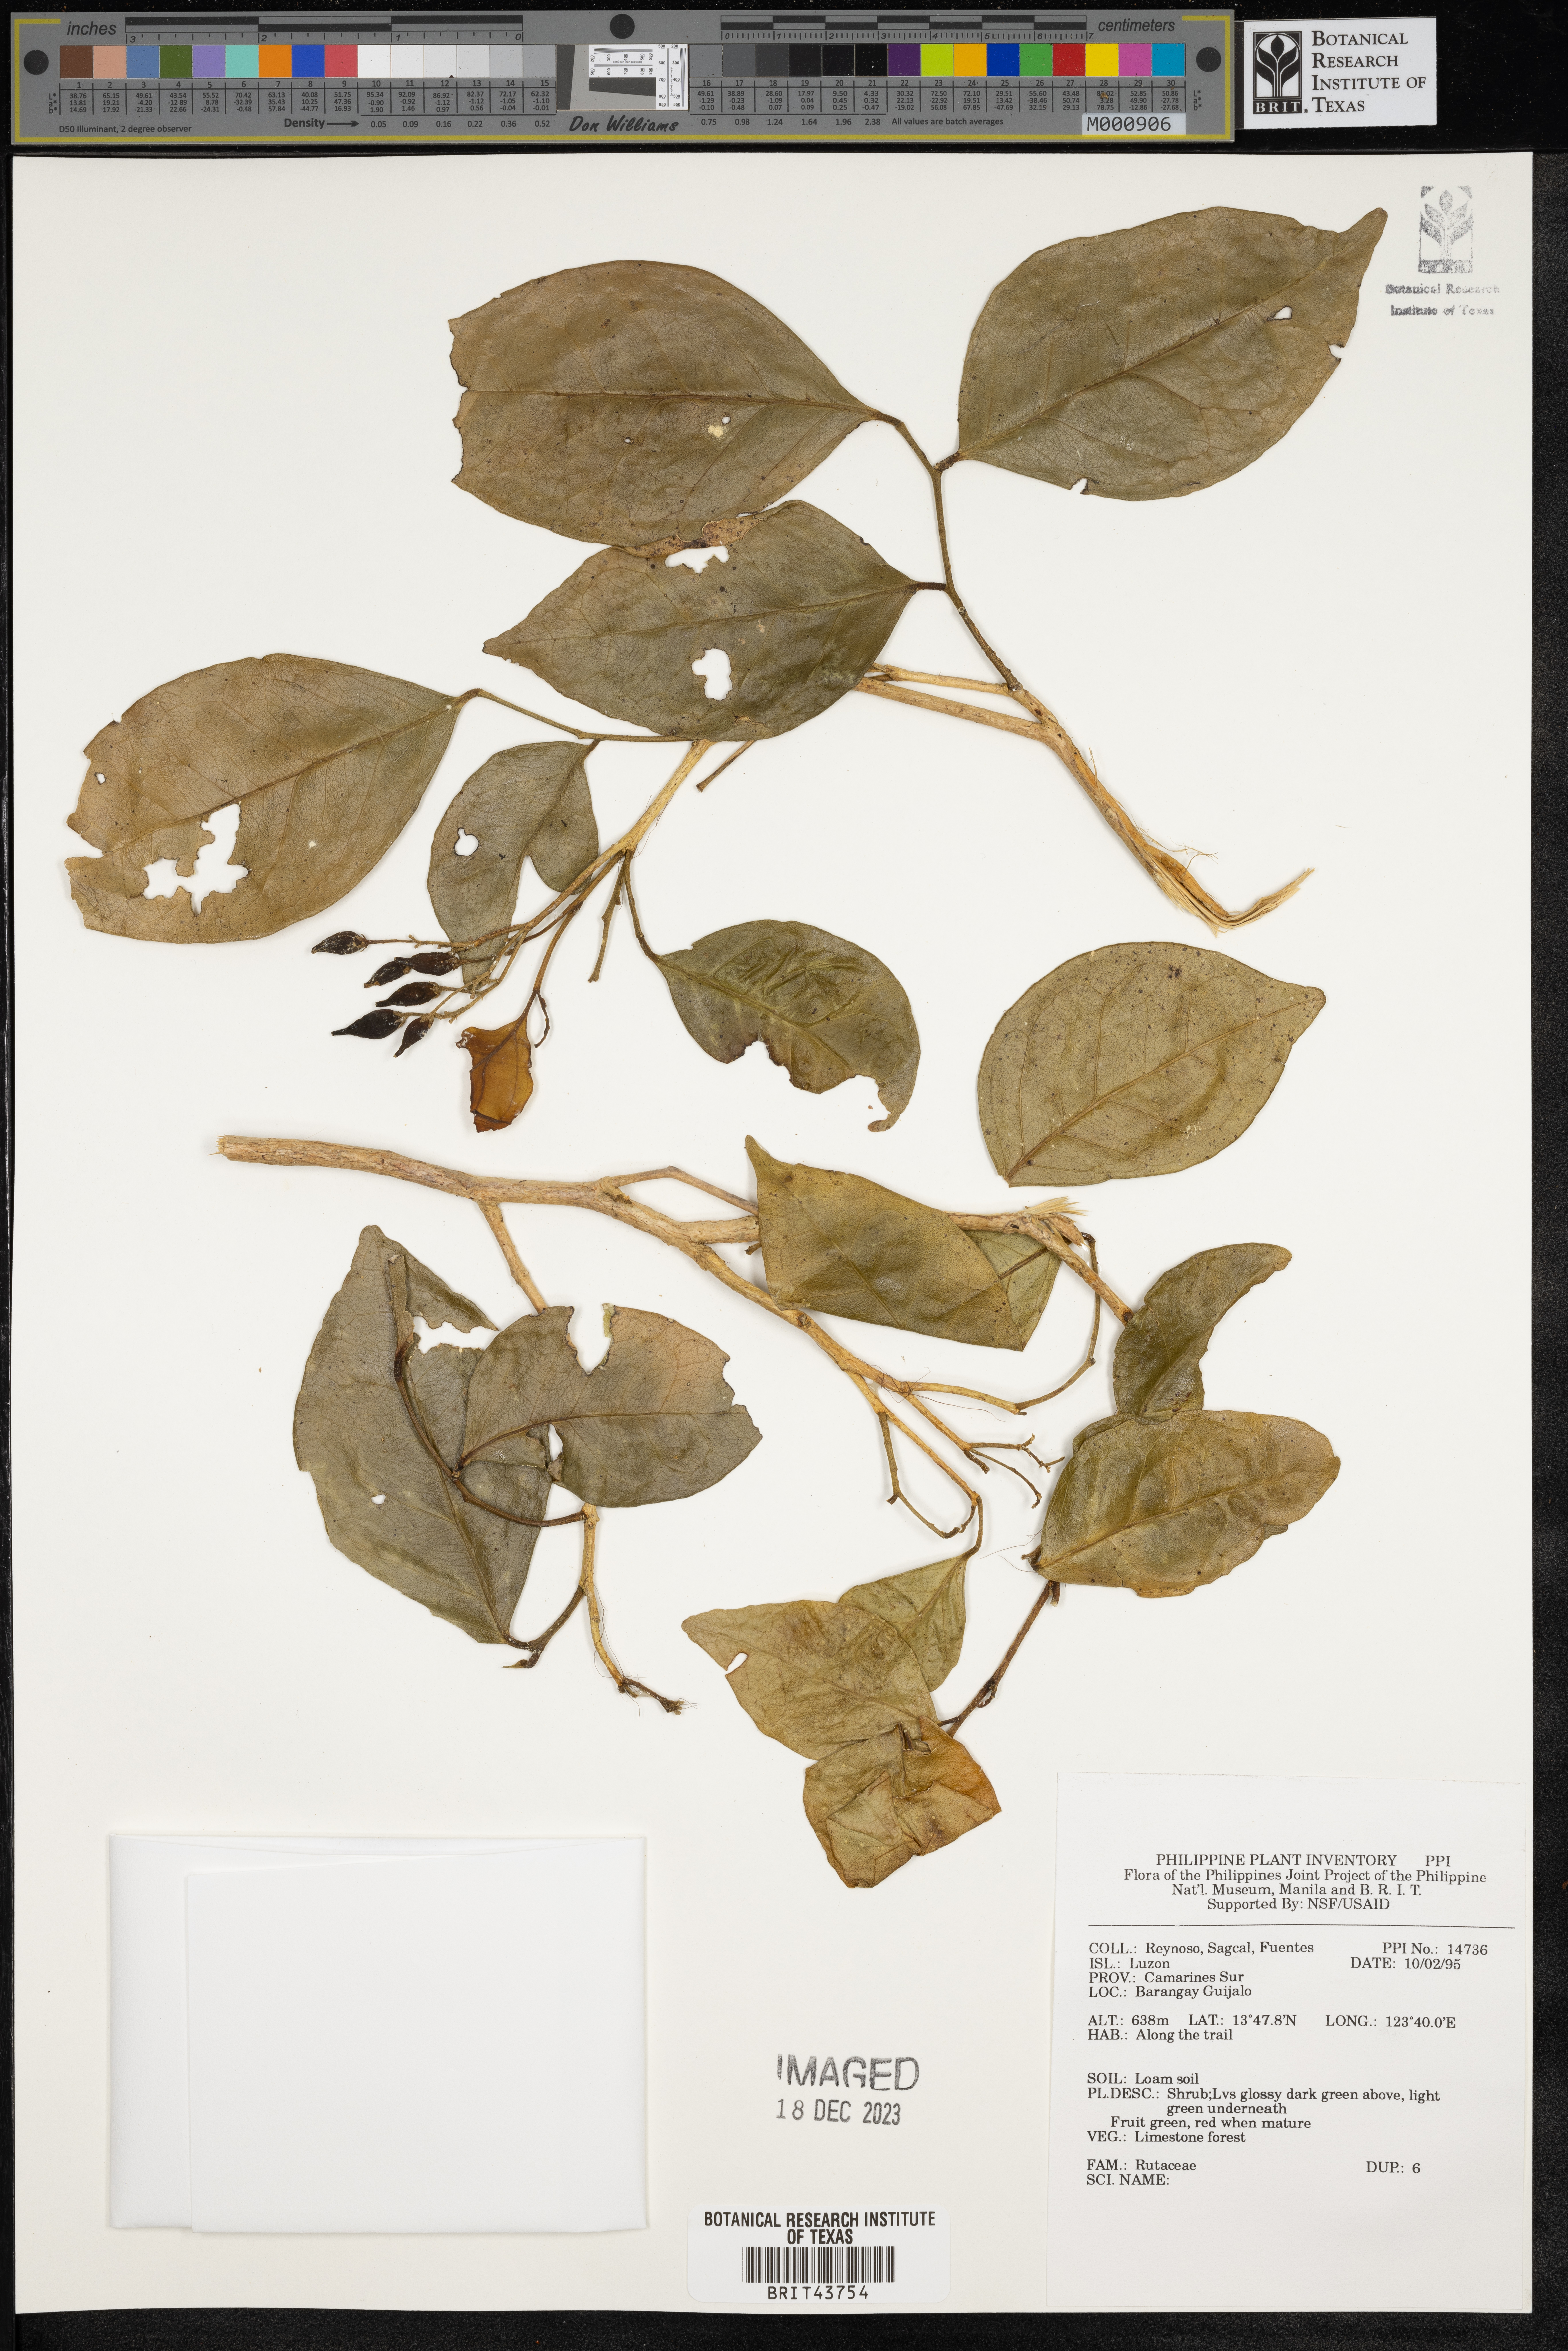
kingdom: Plantae
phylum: Tracheophyta
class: Magnoliopsida
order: Sapindales
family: Rutaceae
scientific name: Rutaceae
